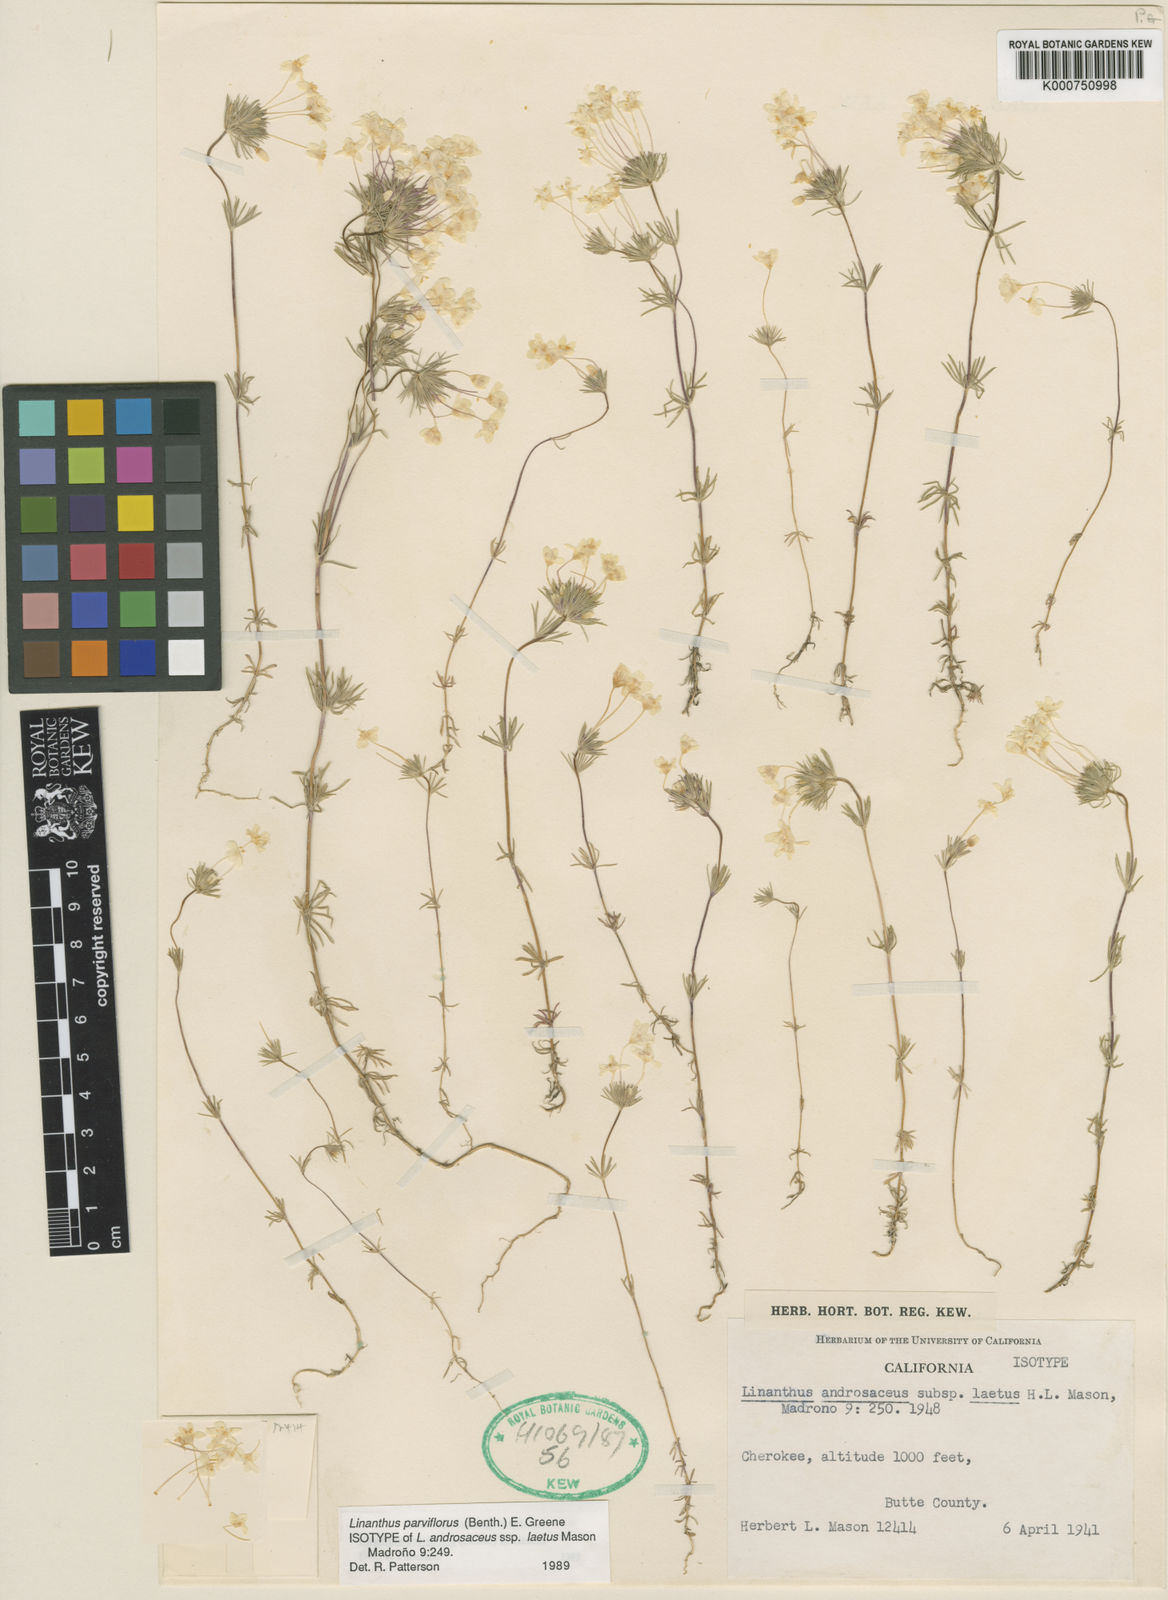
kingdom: Plantae
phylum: Tracheophyta
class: Magnoliopsida
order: Ericales
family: Polemoniaceae
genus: Leptosiphon
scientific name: Leptosiphon parviflorus
